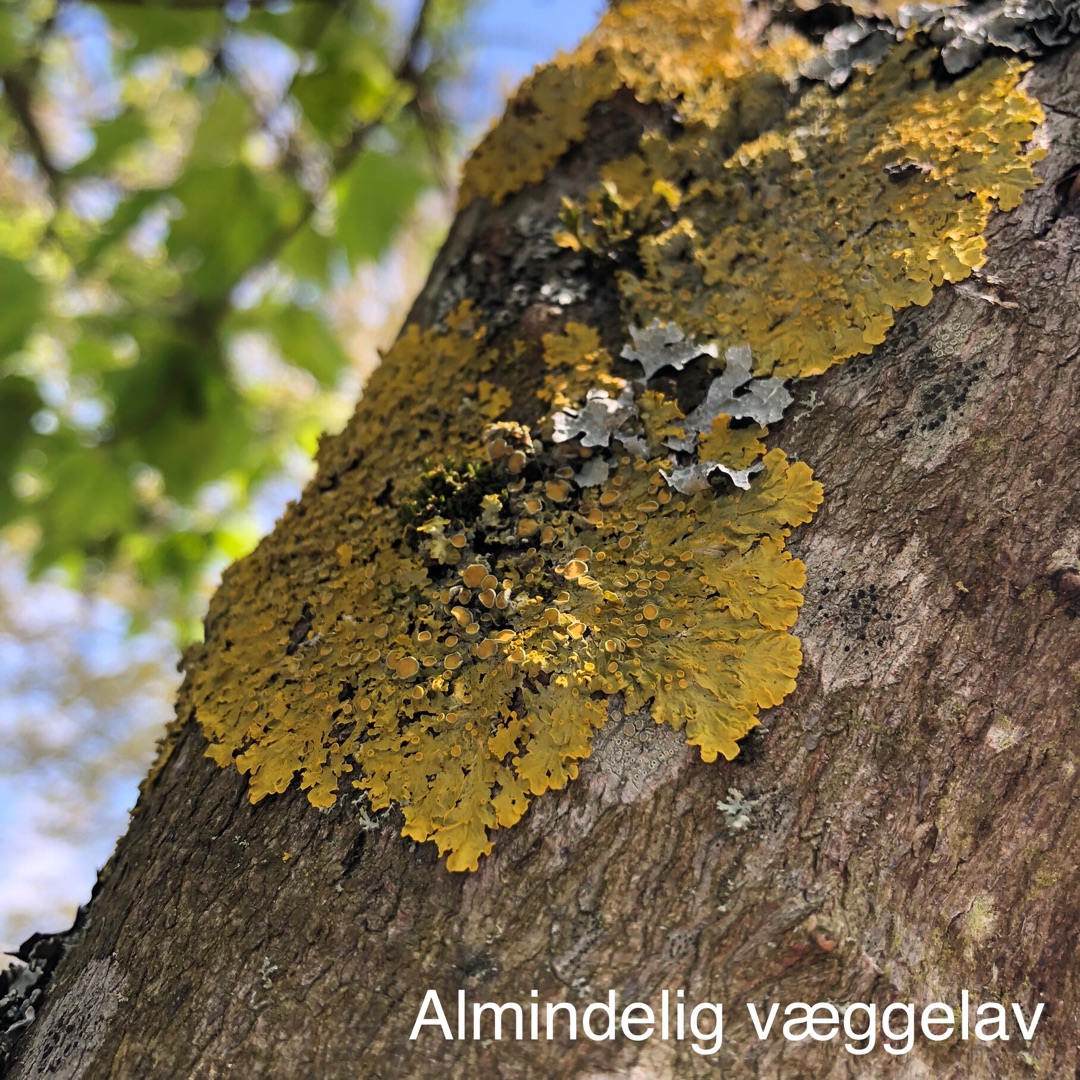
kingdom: Fungi
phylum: Ascomycota
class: Lecanoromycetes
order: Teloschistales
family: Teloschistaceae
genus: Xanthoria
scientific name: Xanthoria parietina
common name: Almindelig væggelav
